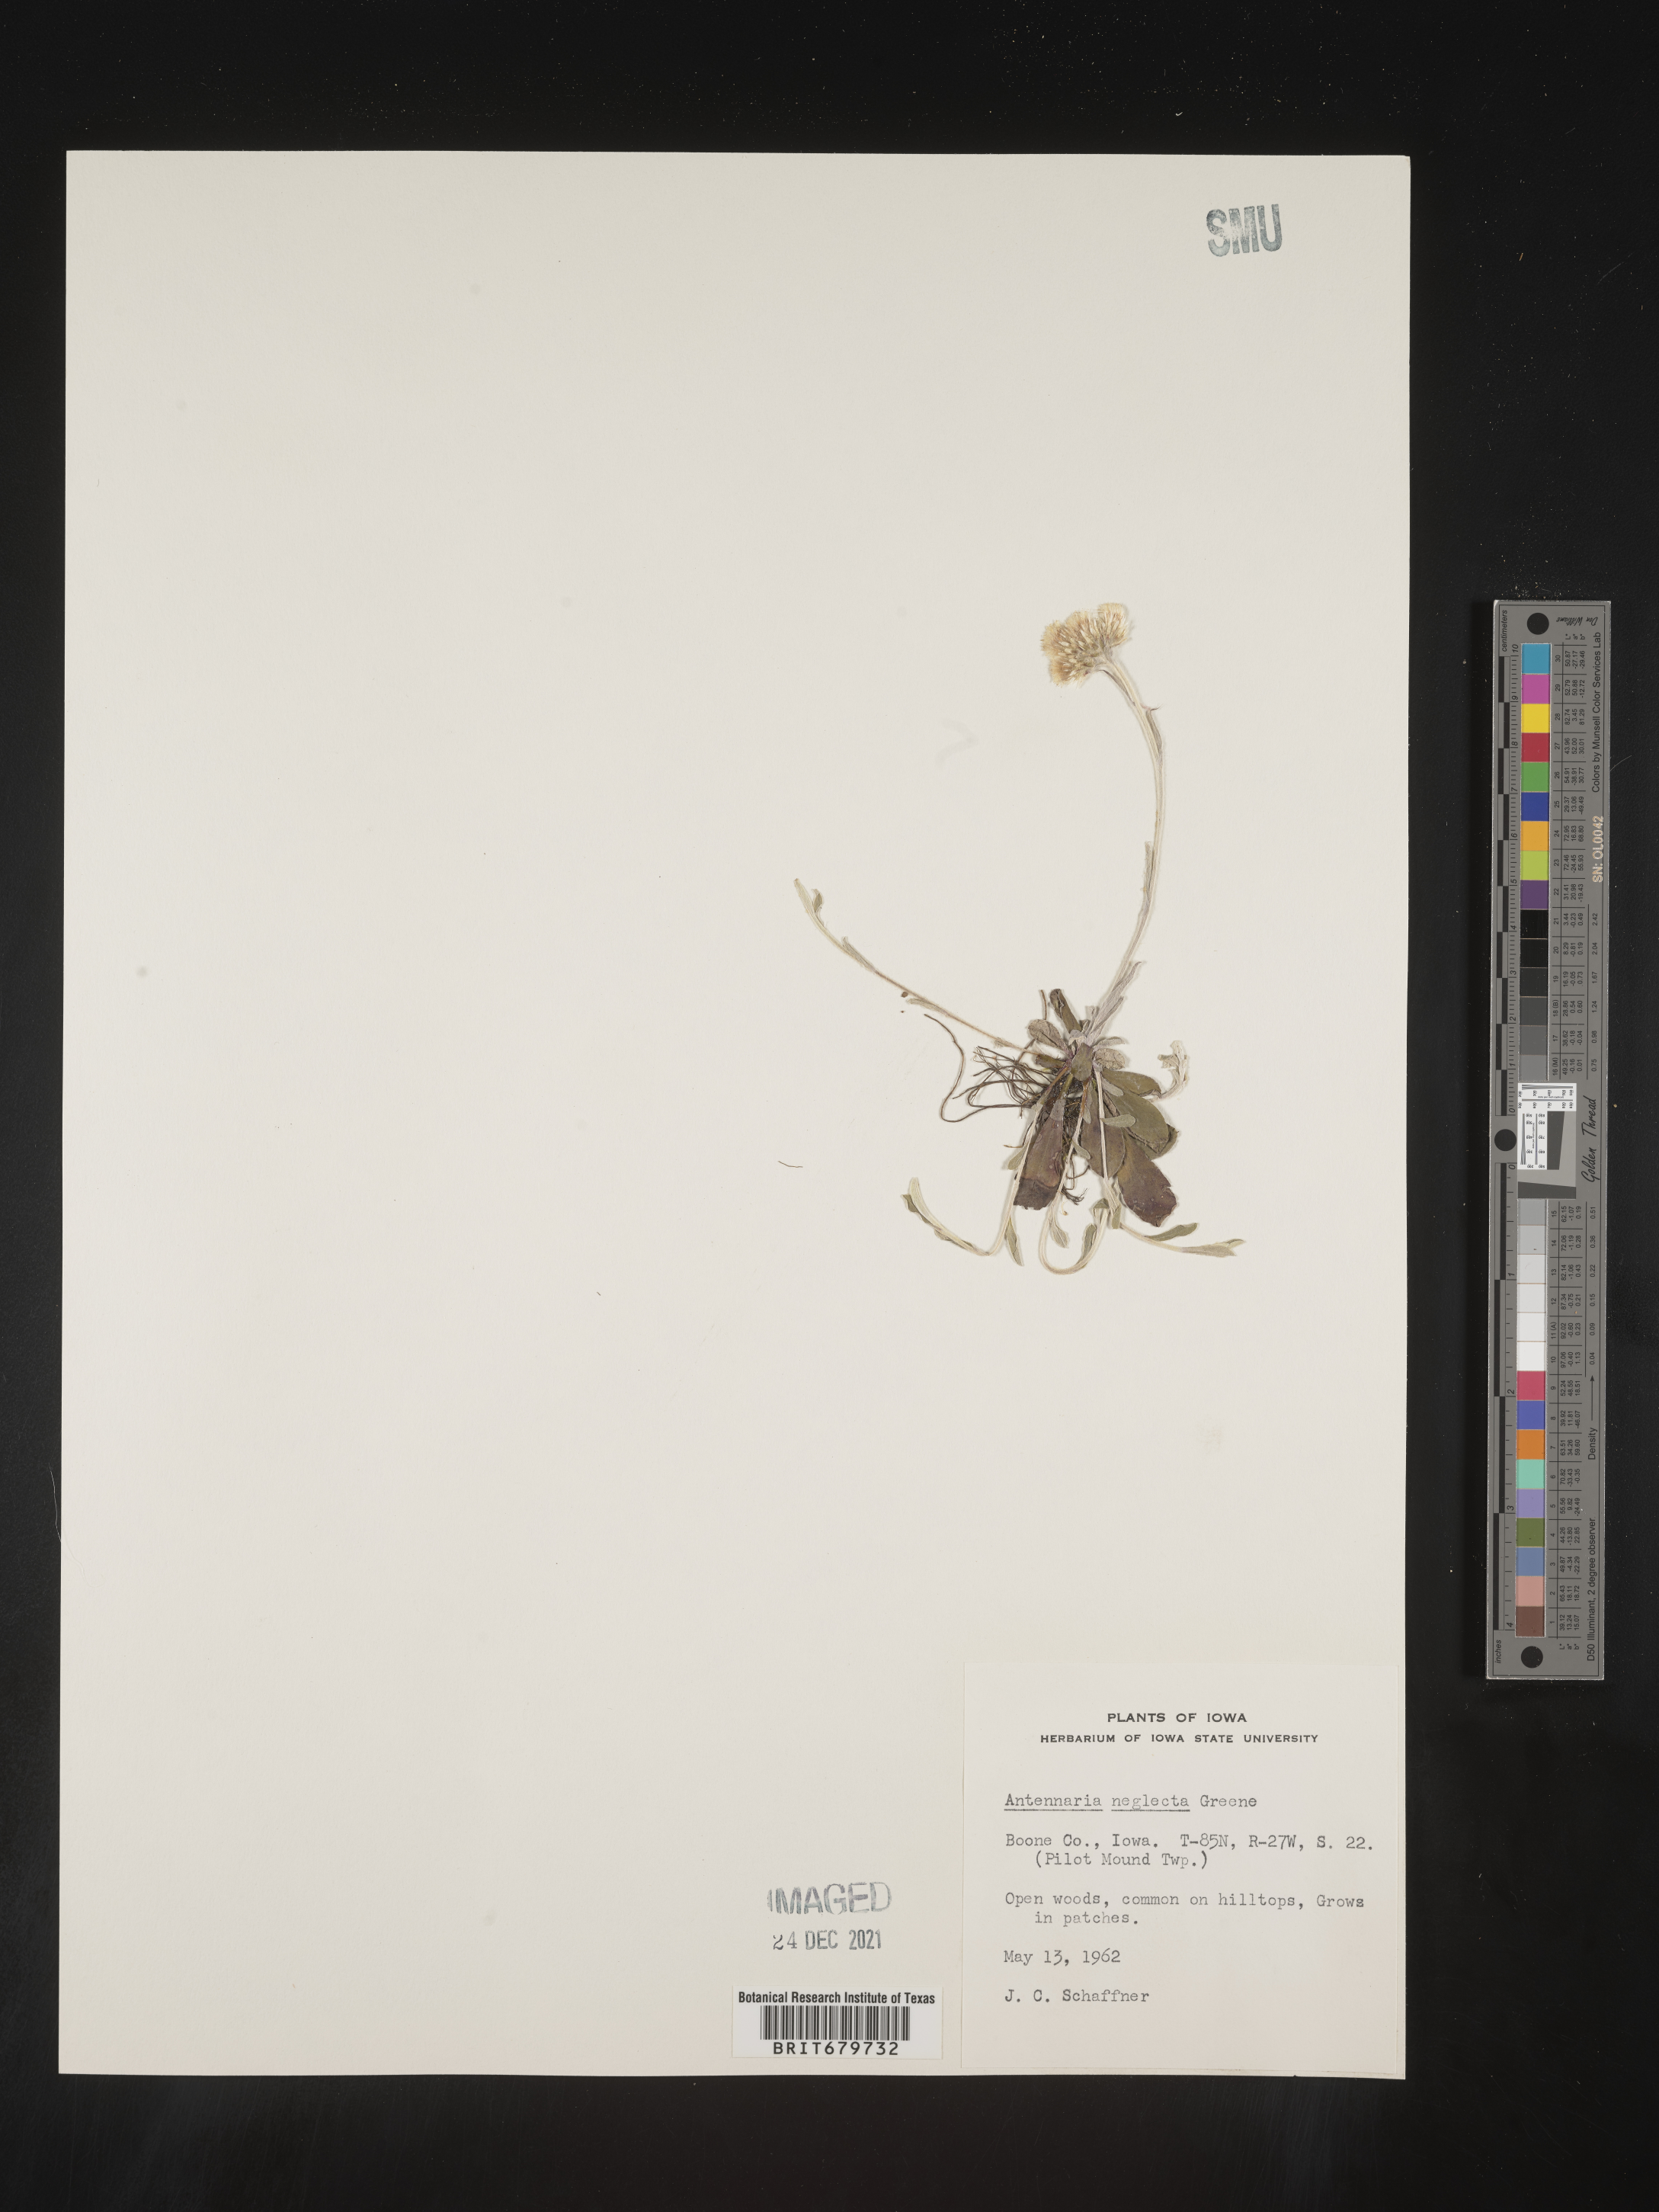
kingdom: Plantae
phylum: Tracheophyta
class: Magnoliopsida
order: Asterales
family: Asteraceae
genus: Antennaria
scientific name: Antennaria neglecta
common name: Field pussytoes
